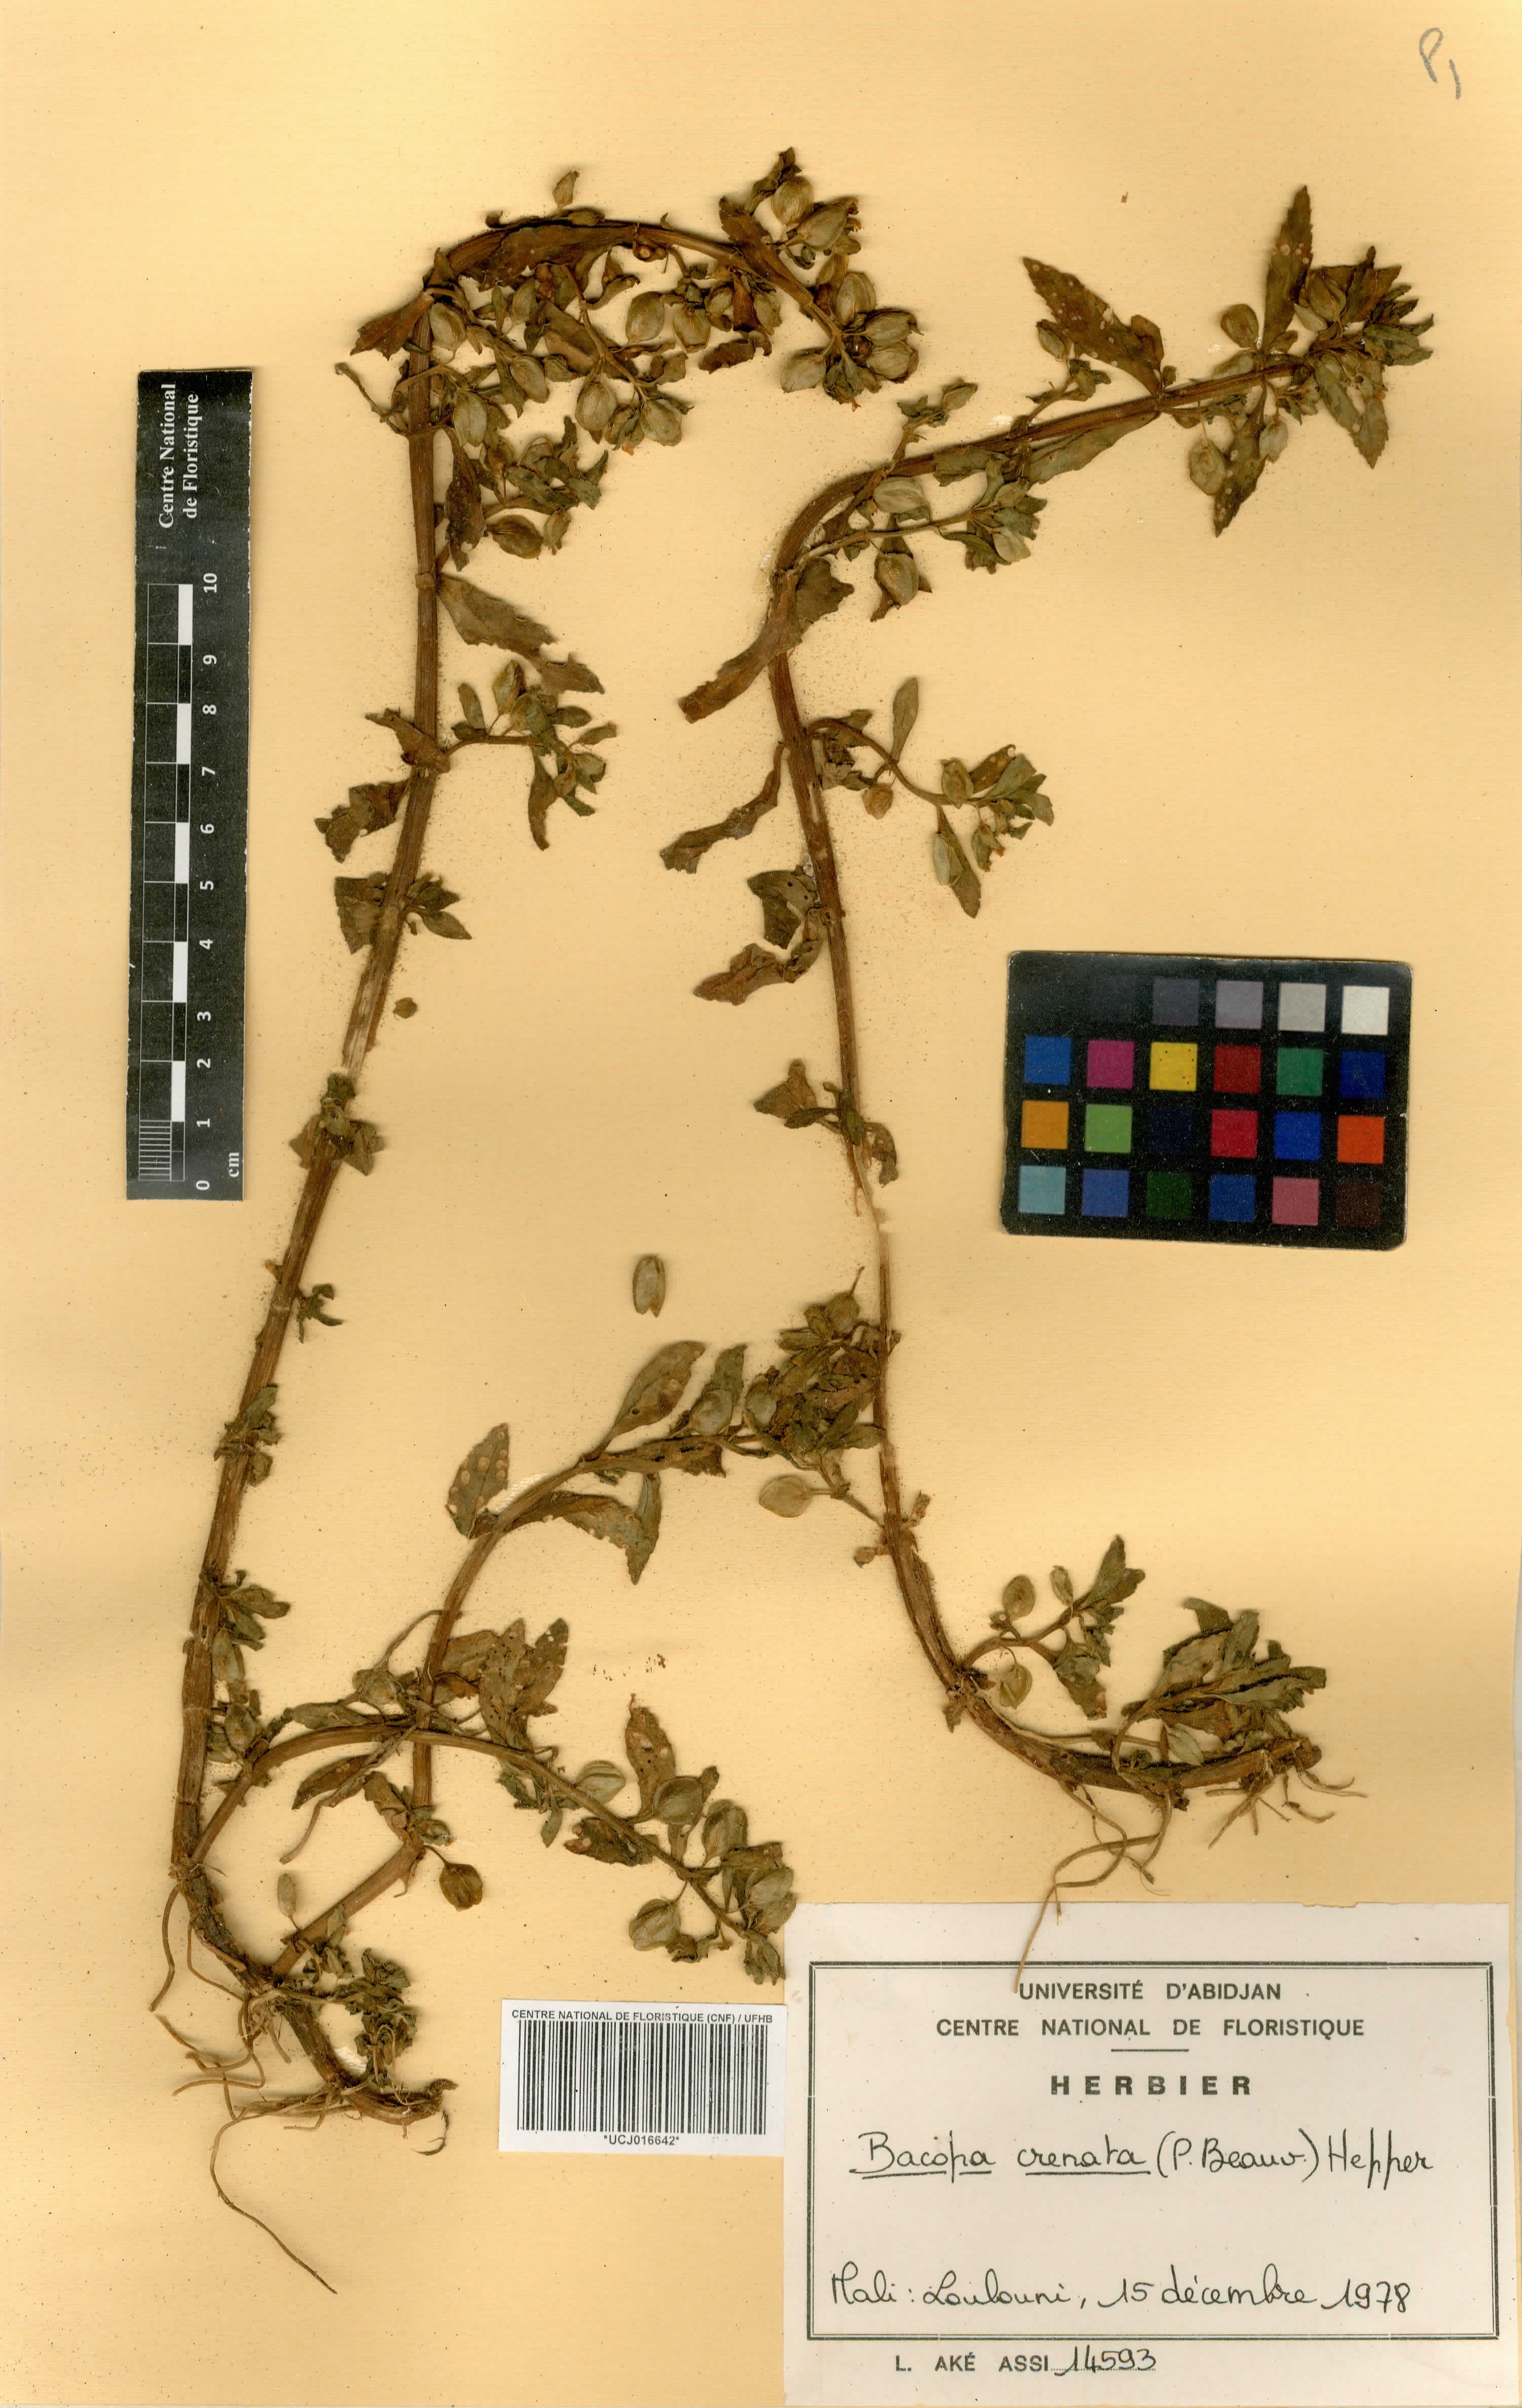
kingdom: Plantae
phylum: Tracheophyta
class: Magnoliopsida
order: Lamiales
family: Plantaginaceae
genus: Bacopa
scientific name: Bacopa crenata
